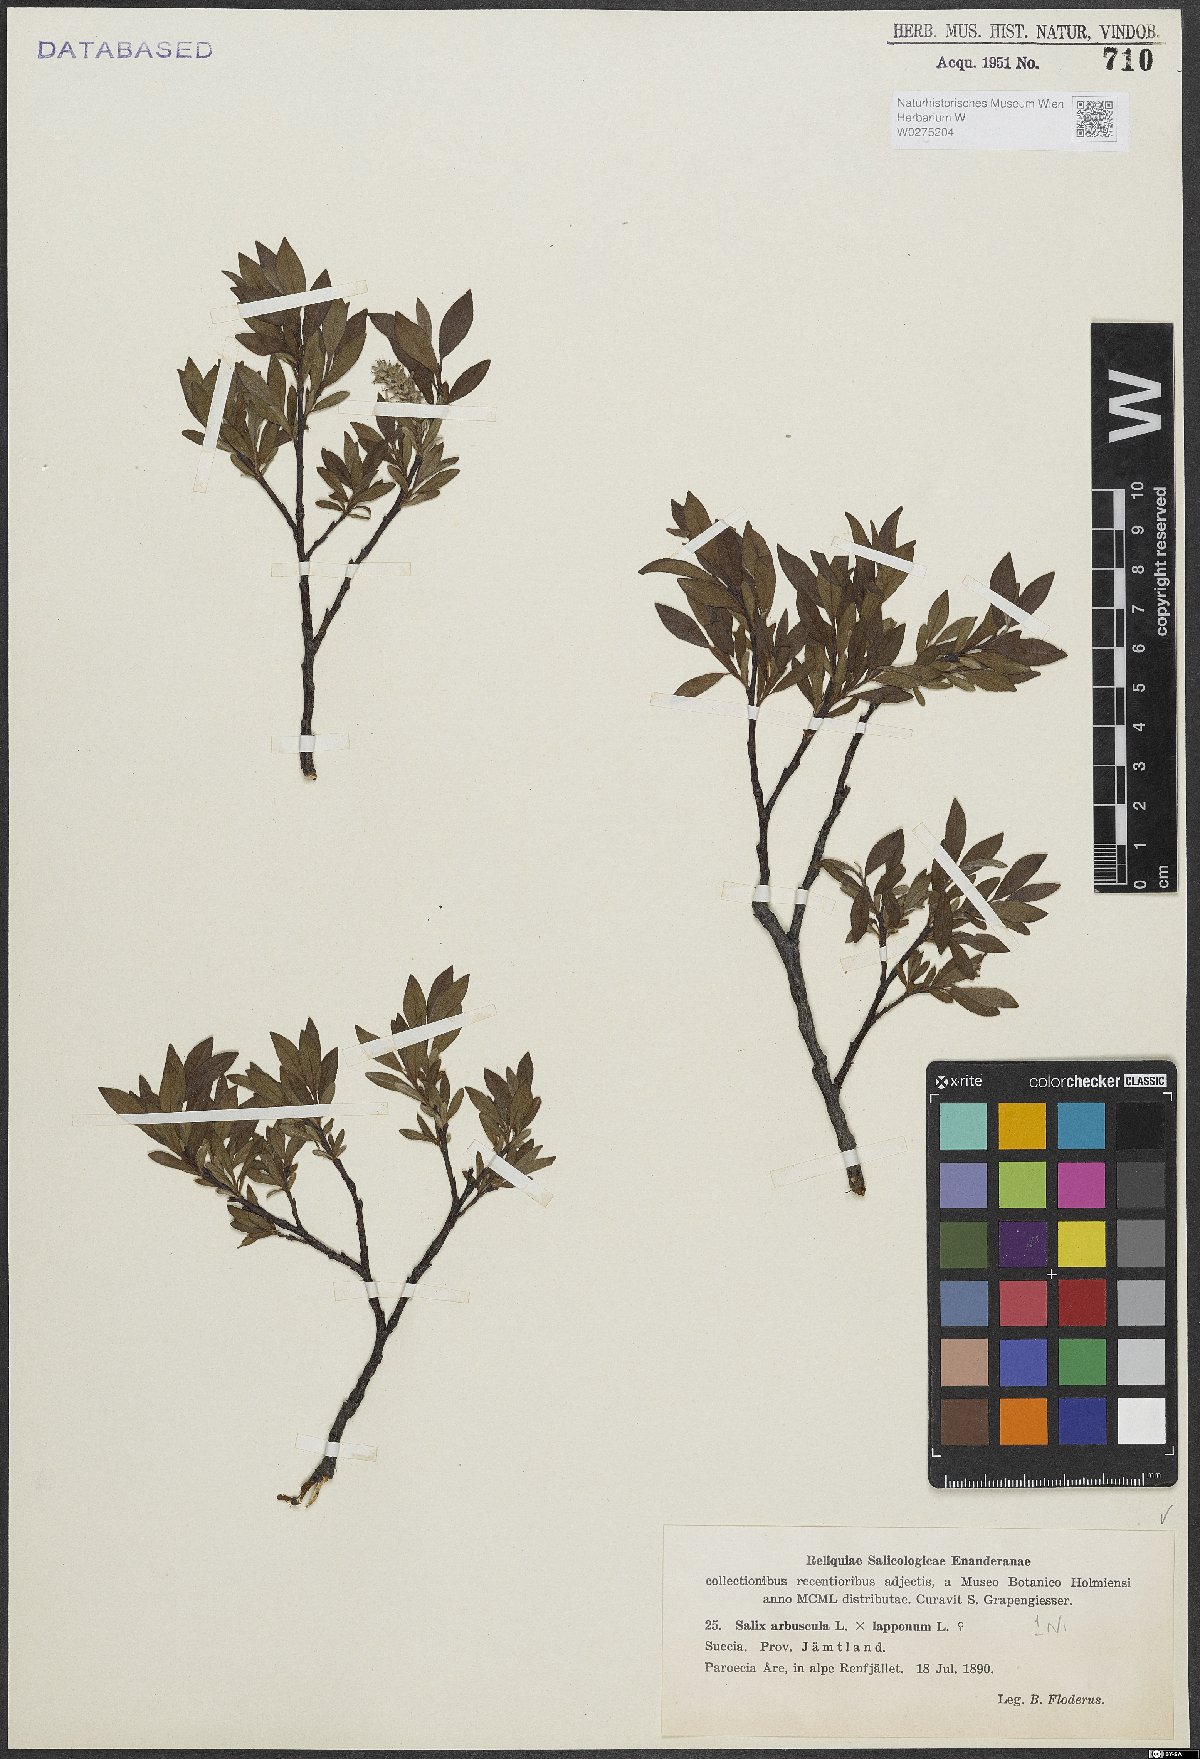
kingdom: Plantae
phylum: Tracheophyta
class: Magnoliopsida
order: Malpighiales
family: Salicaceae
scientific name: Salicaceae
